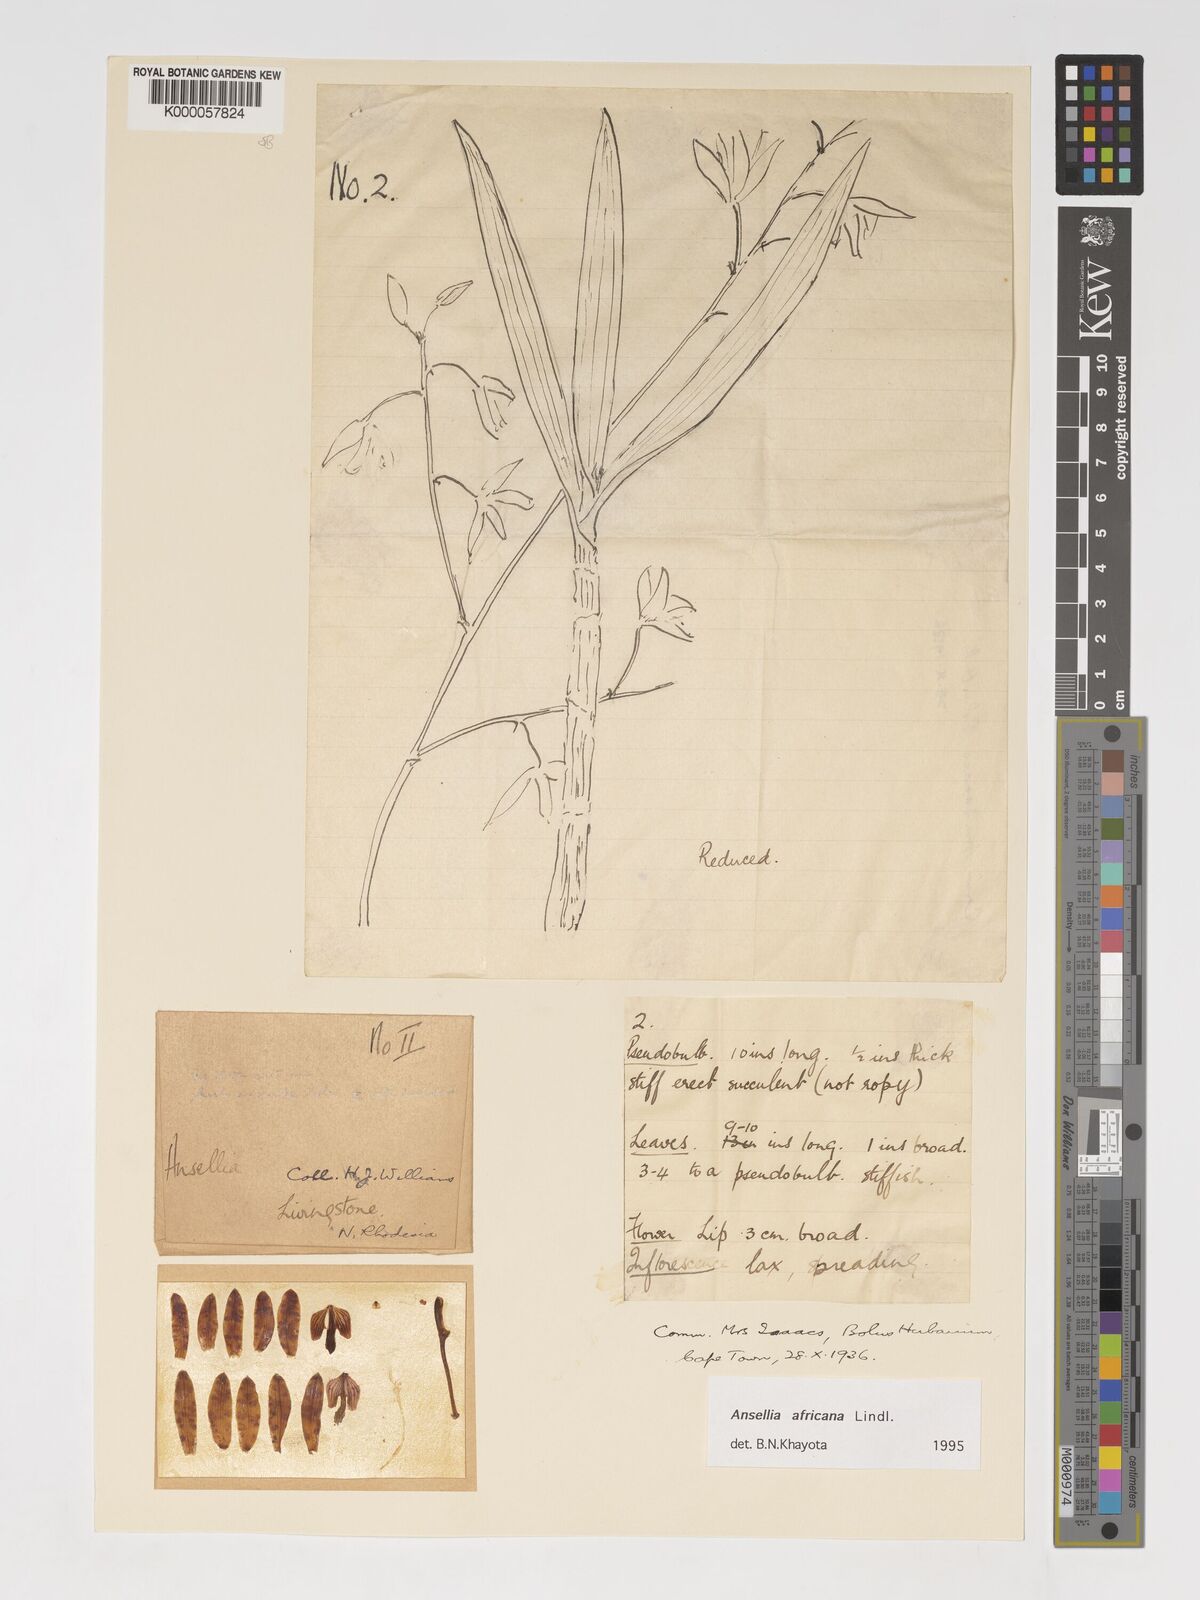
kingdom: Plantae
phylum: Tracheophyta
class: Liliopsida
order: Asparagales
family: Orchidaceae
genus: Ansellia
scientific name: Ansellia africana
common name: African ansellia
